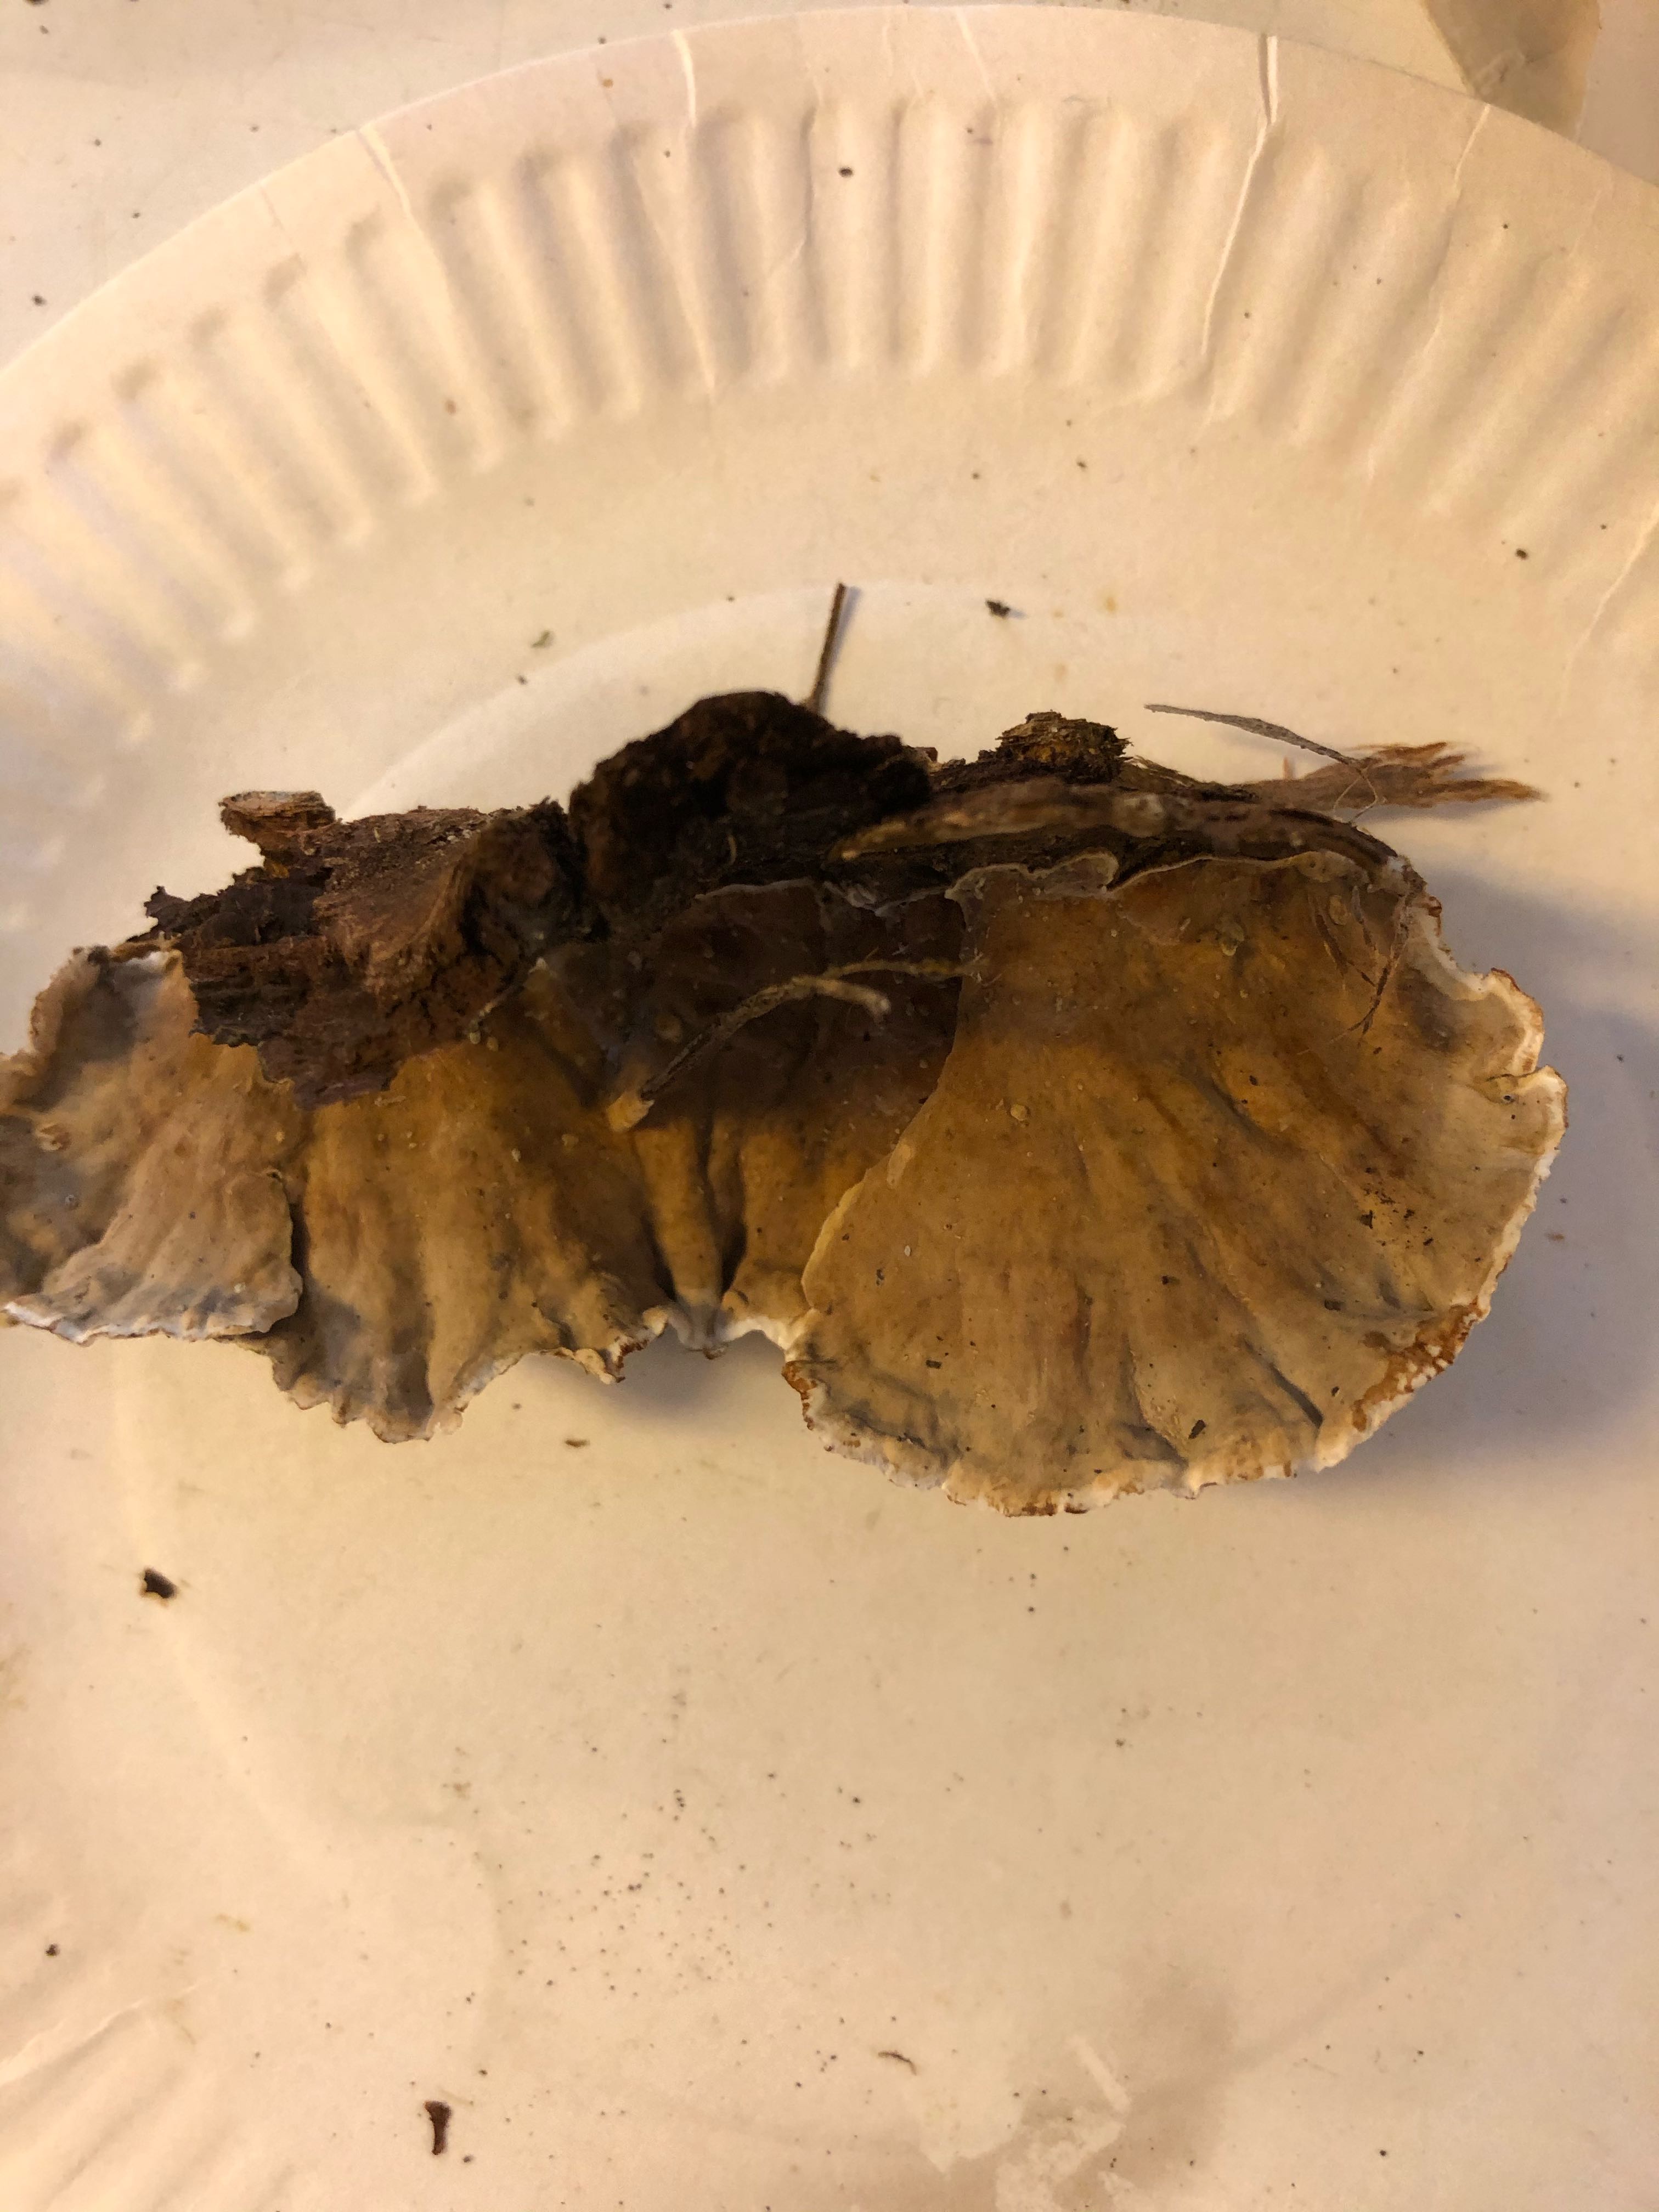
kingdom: Fungi
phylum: Basidiomycota
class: Agaricomycetes
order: Russulales
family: Stereaceae
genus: Stereum
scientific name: Stereum subtomentosum
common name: smuk lædersvamp
